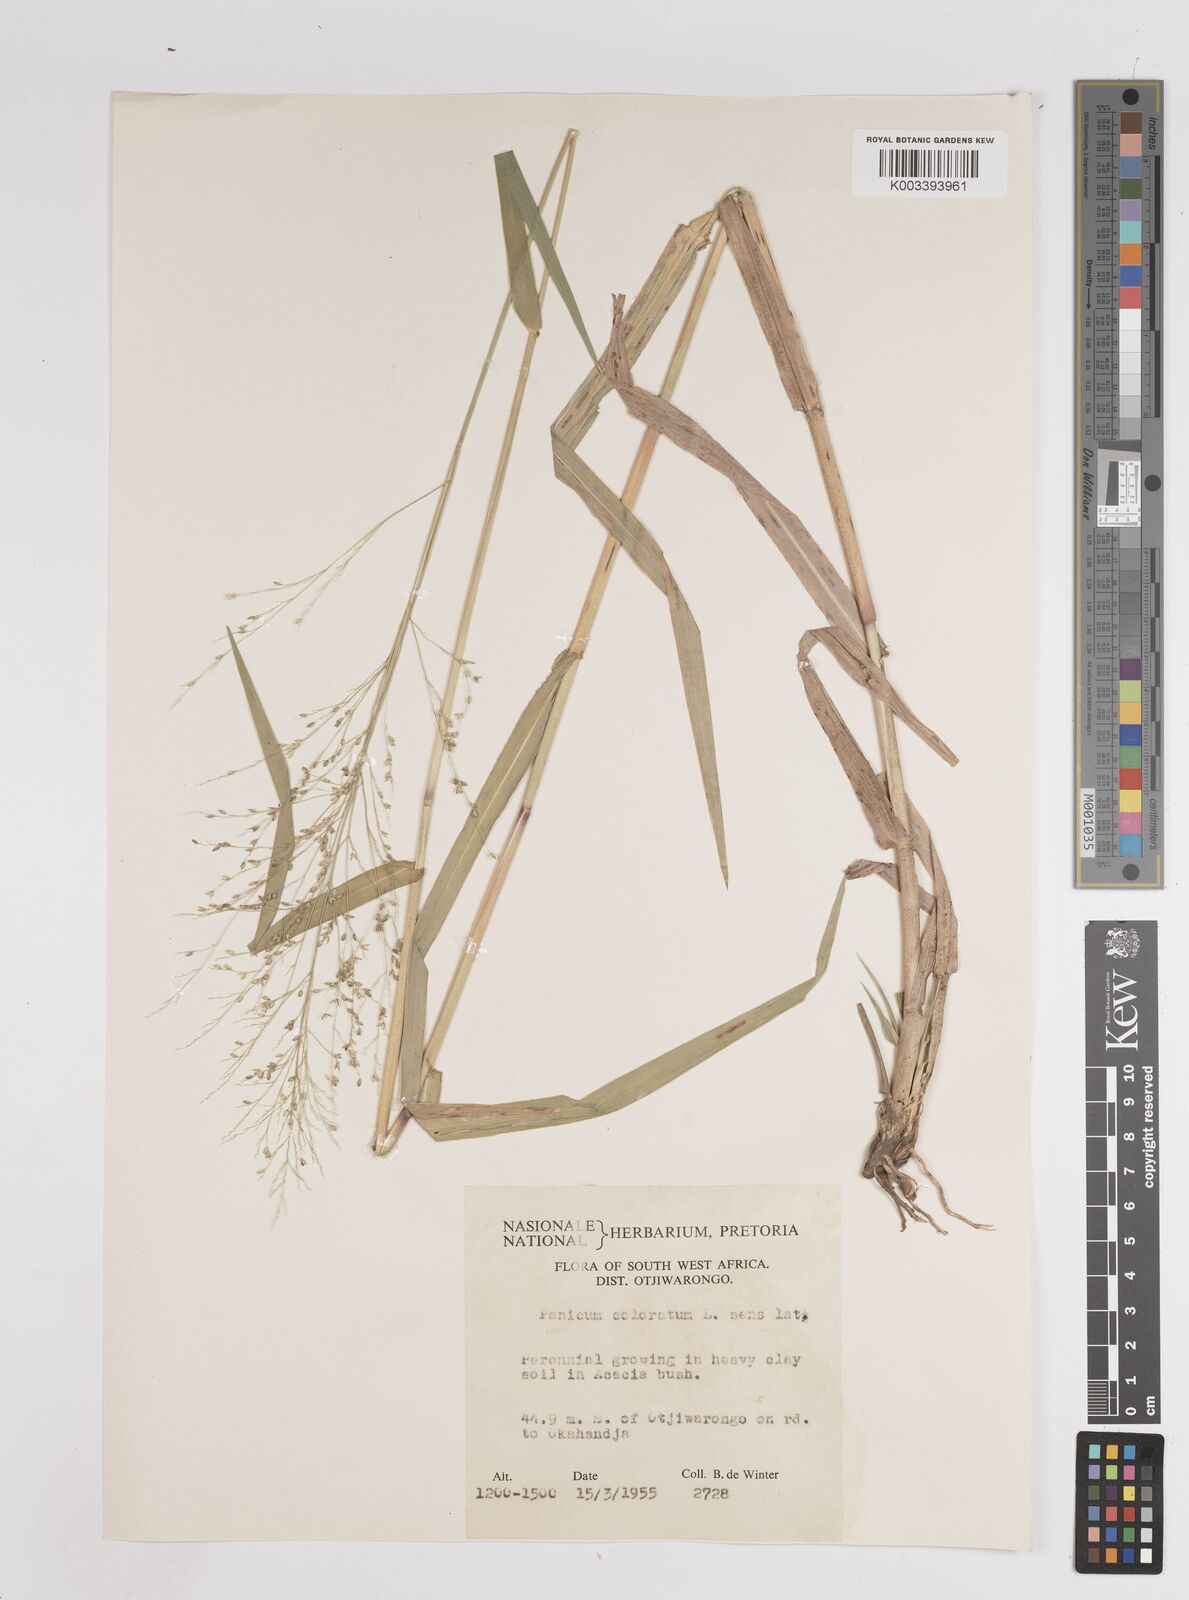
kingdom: Plantae
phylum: Tracheophyta
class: Liliopsida
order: Poales
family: Poaceae
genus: Panicum
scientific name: Panicum coloratum
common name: Kleingrass
